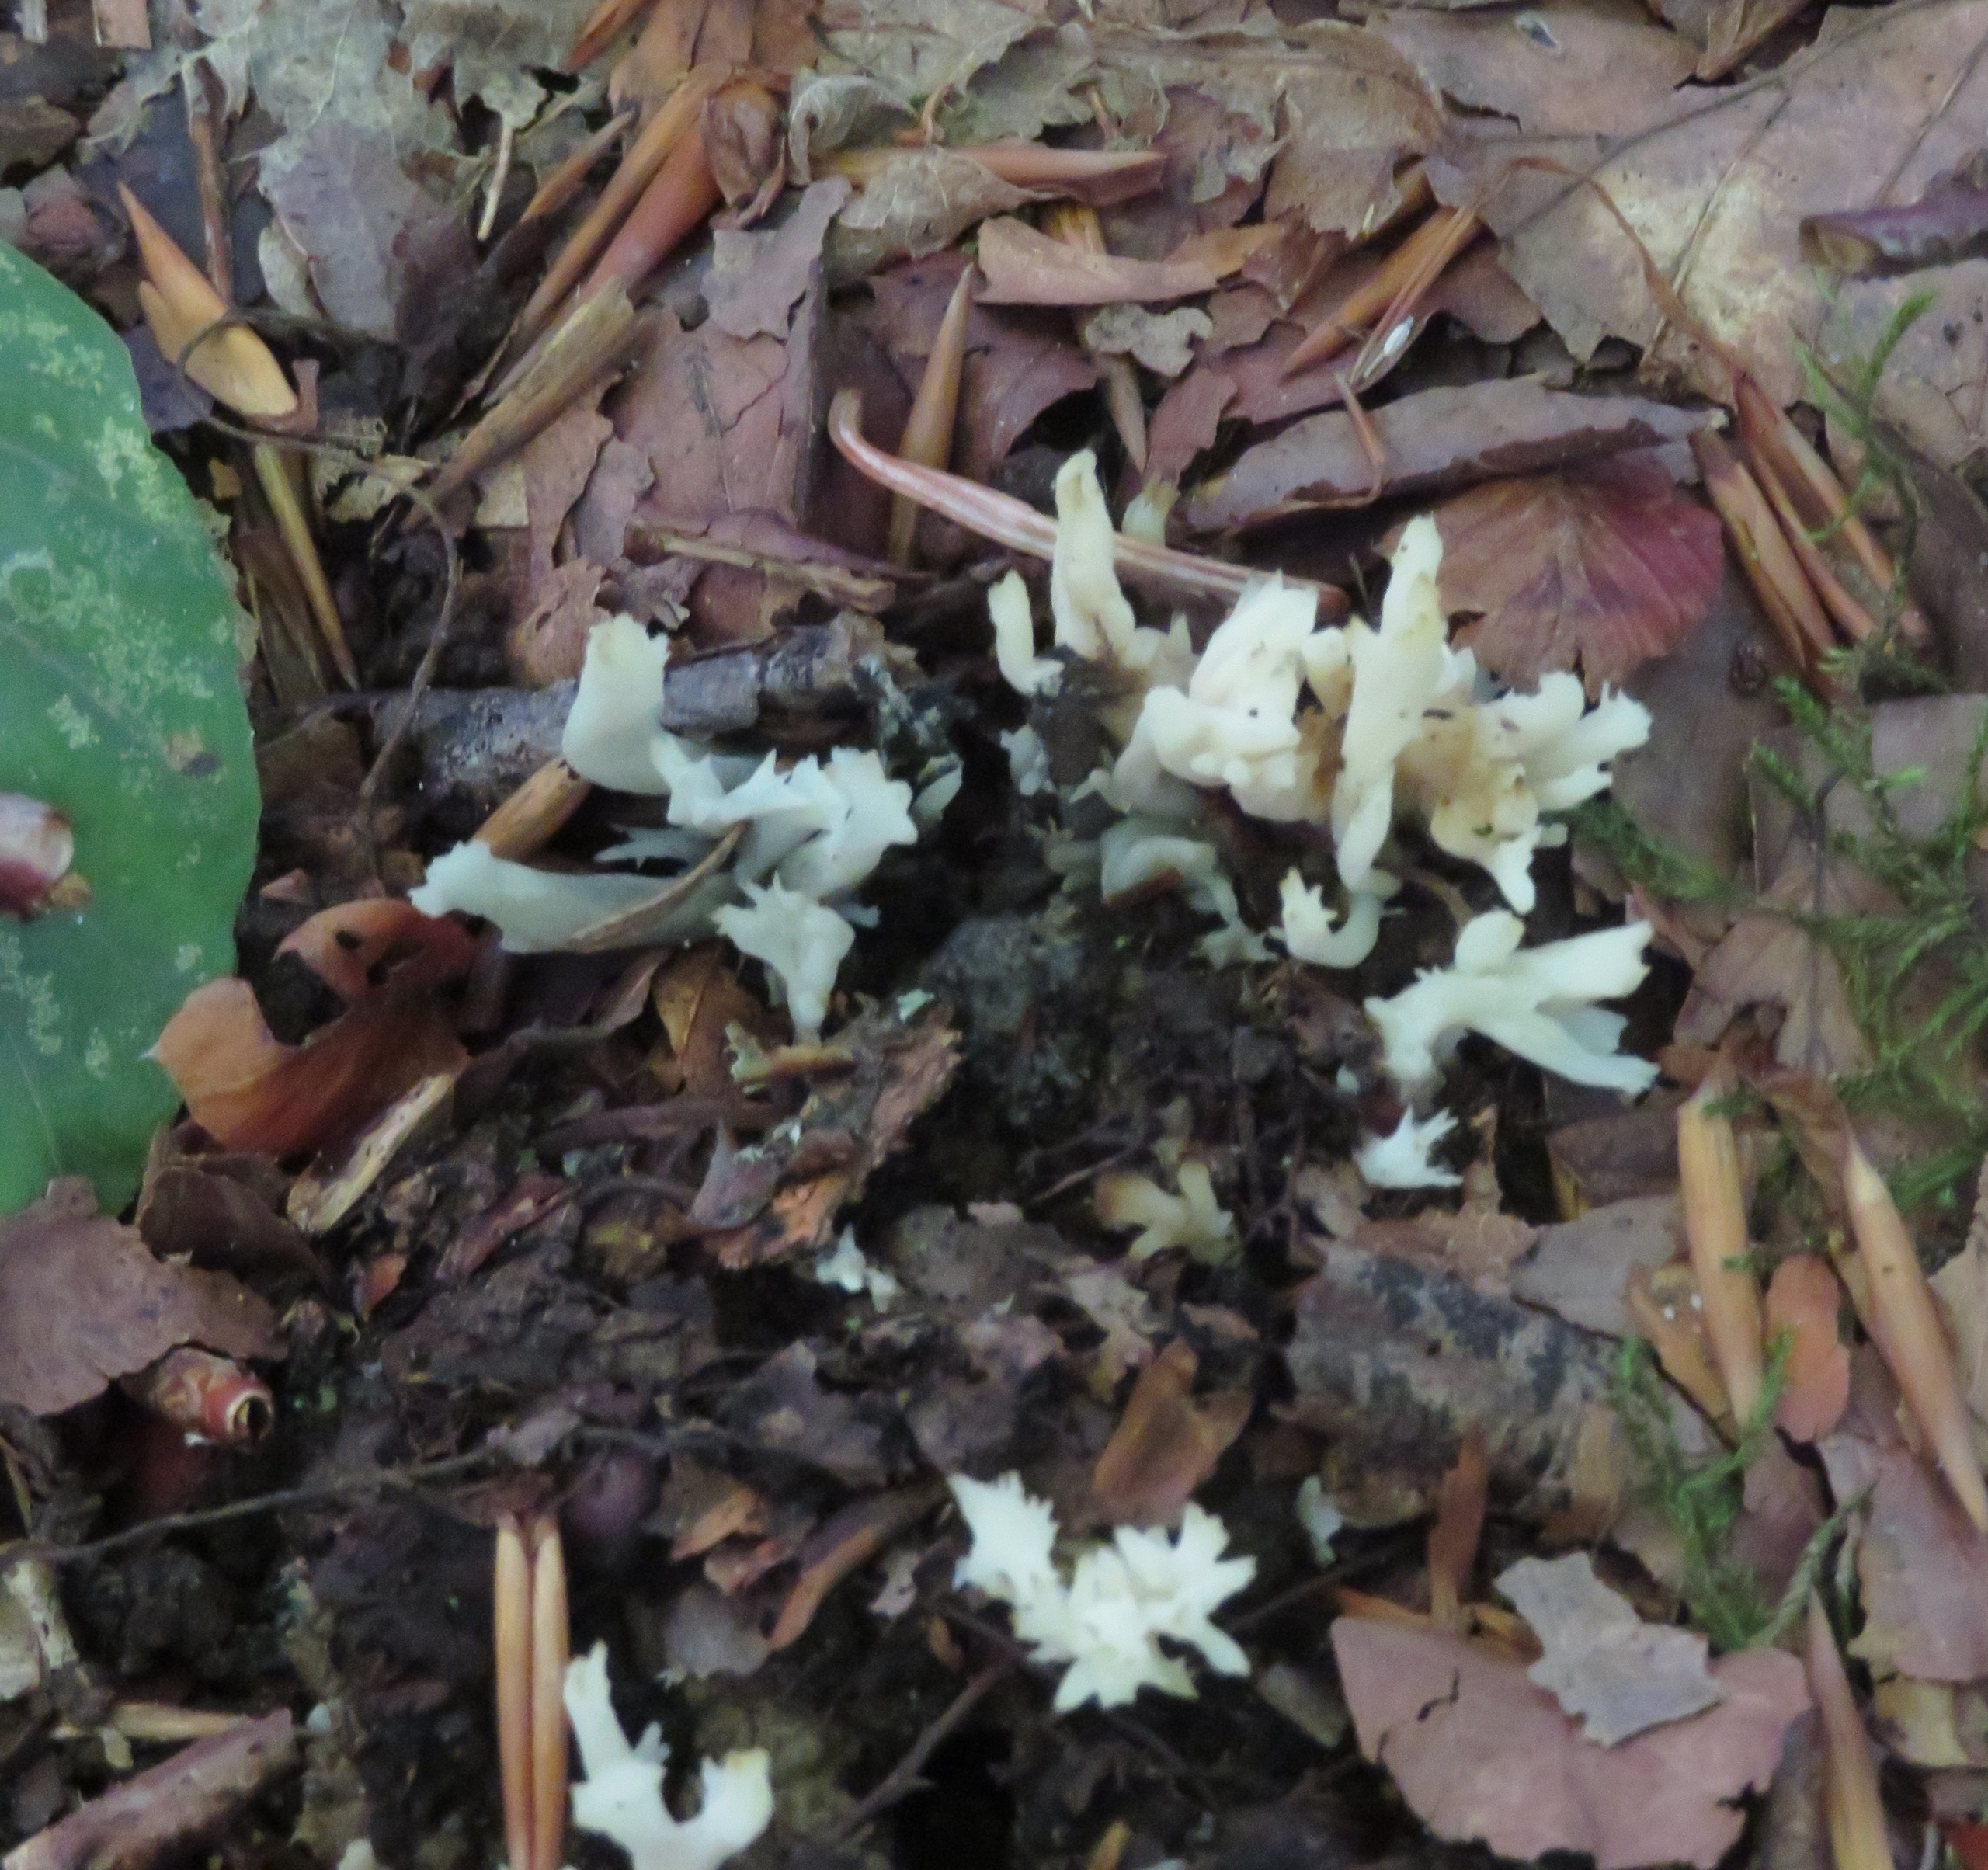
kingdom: Fungi
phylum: Basidiomycota
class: Agaricomycetes
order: Cantharellales
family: Hydnaceae
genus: Clavulina
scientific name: Clavulina coralloides
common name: Kam-troldkølle
